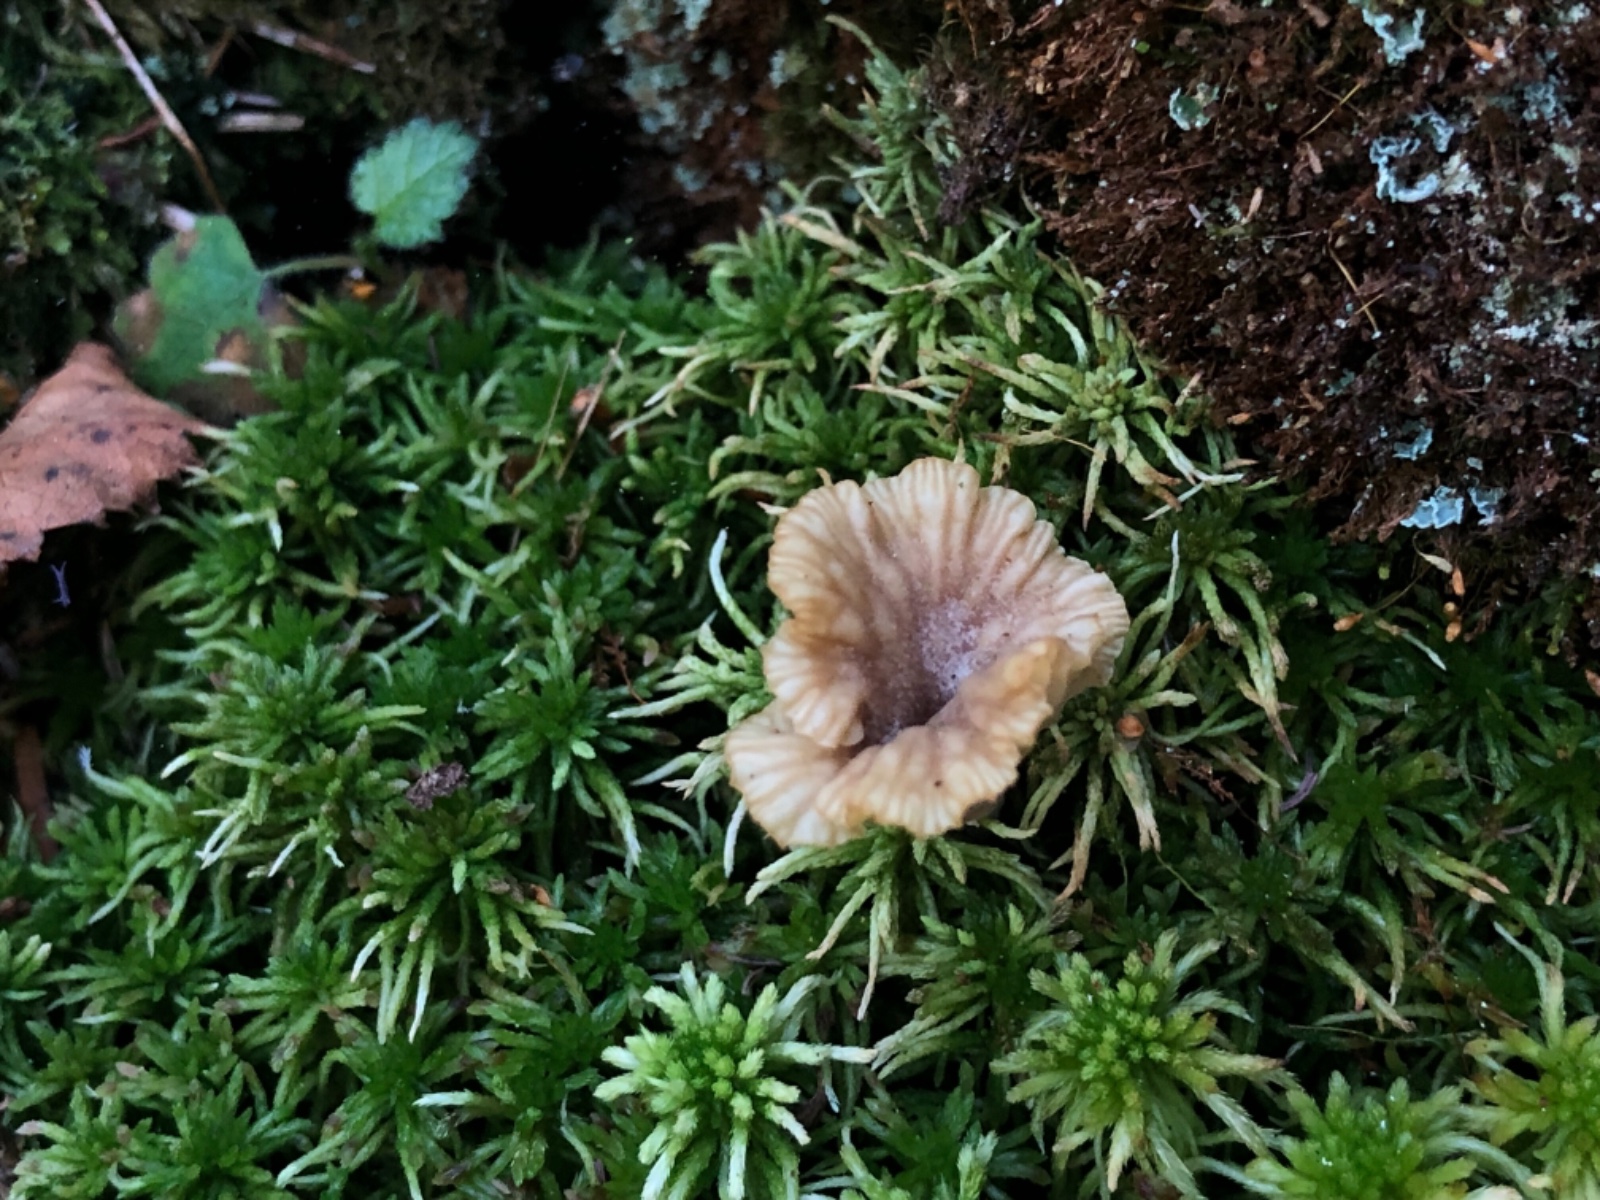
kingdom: Fungi
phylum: Basidiomycota
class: Agaricomycetes
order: Agaricales
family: Hygrophoraceae
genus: Lichenomphalia
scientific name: Lichenomphalia umbellifera
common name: tørve-lavhat
